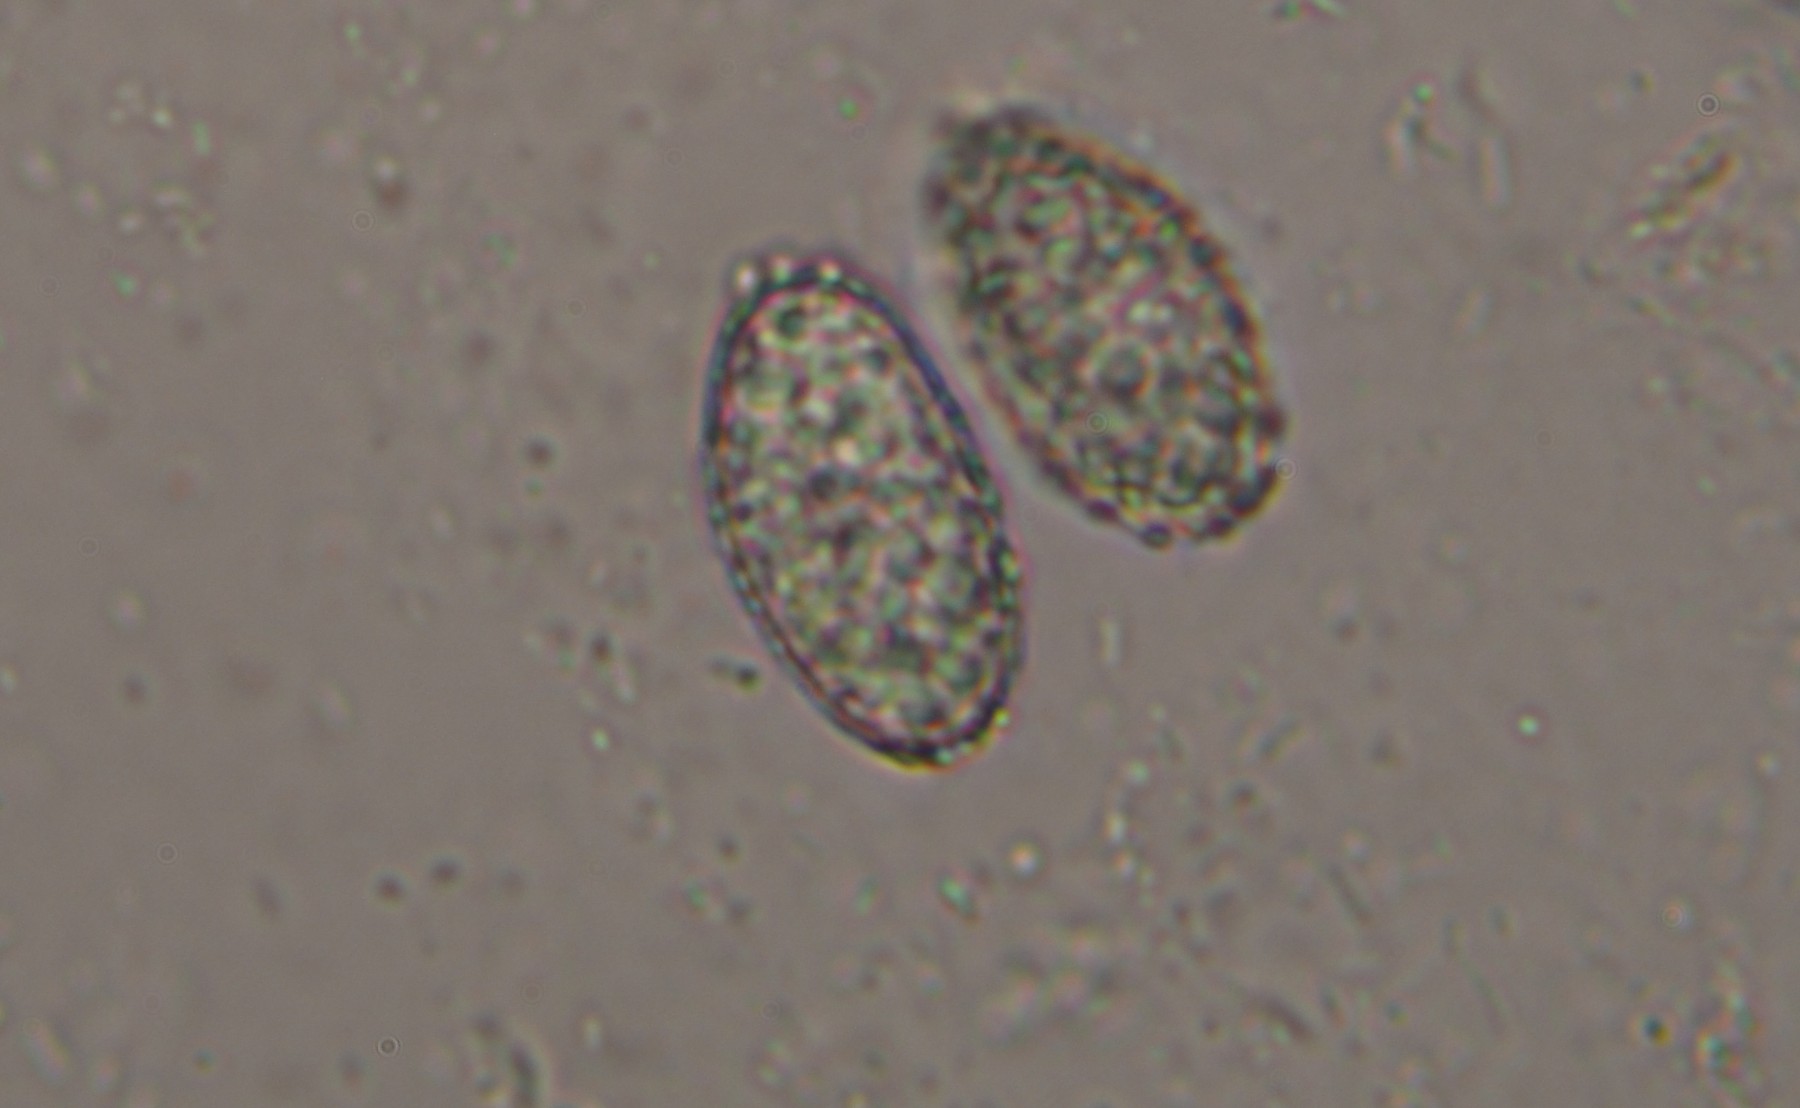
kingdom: Fungi
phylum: Ascomycota
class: Pezizomycetes
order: Pezizales
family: Pyronemataceae
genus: Scutellinia
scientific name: Scutellinia hirta
